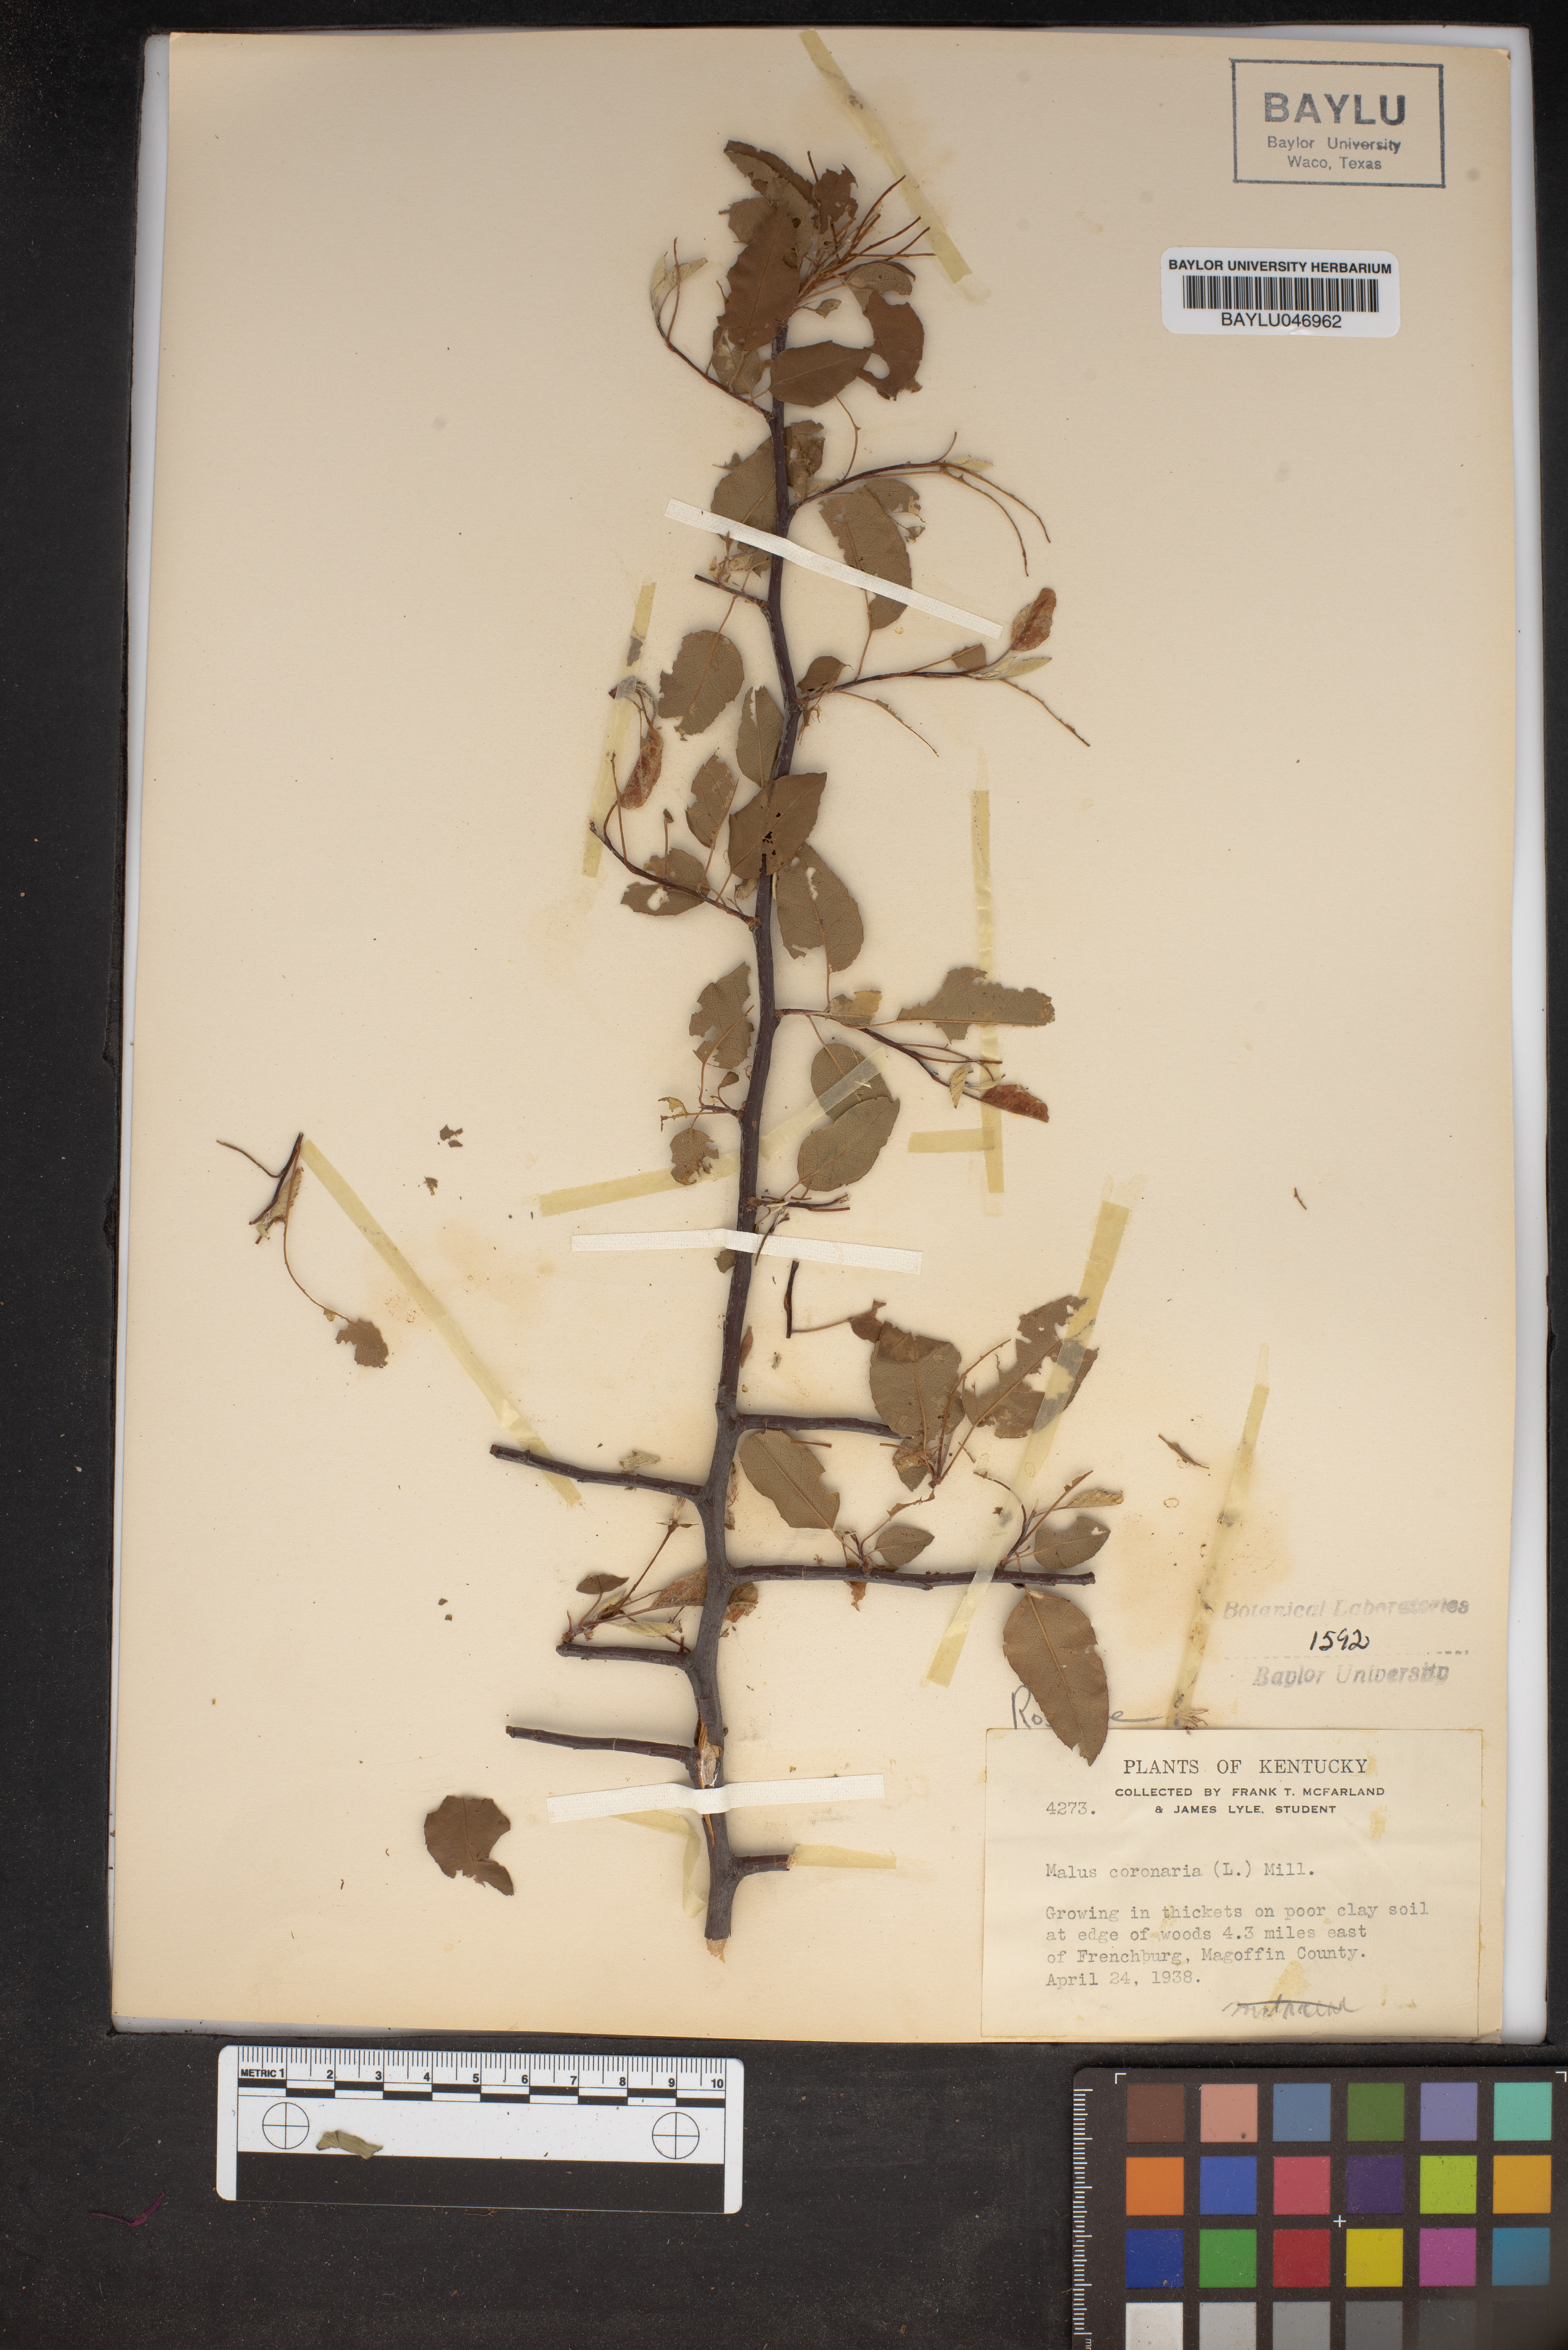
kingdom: Plantae
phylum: Tracheophyta
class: Magnoliopsida
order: Rosales
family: Rosaceae
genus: Malus
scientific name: Malus coronaria
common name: Sweet crab apple
